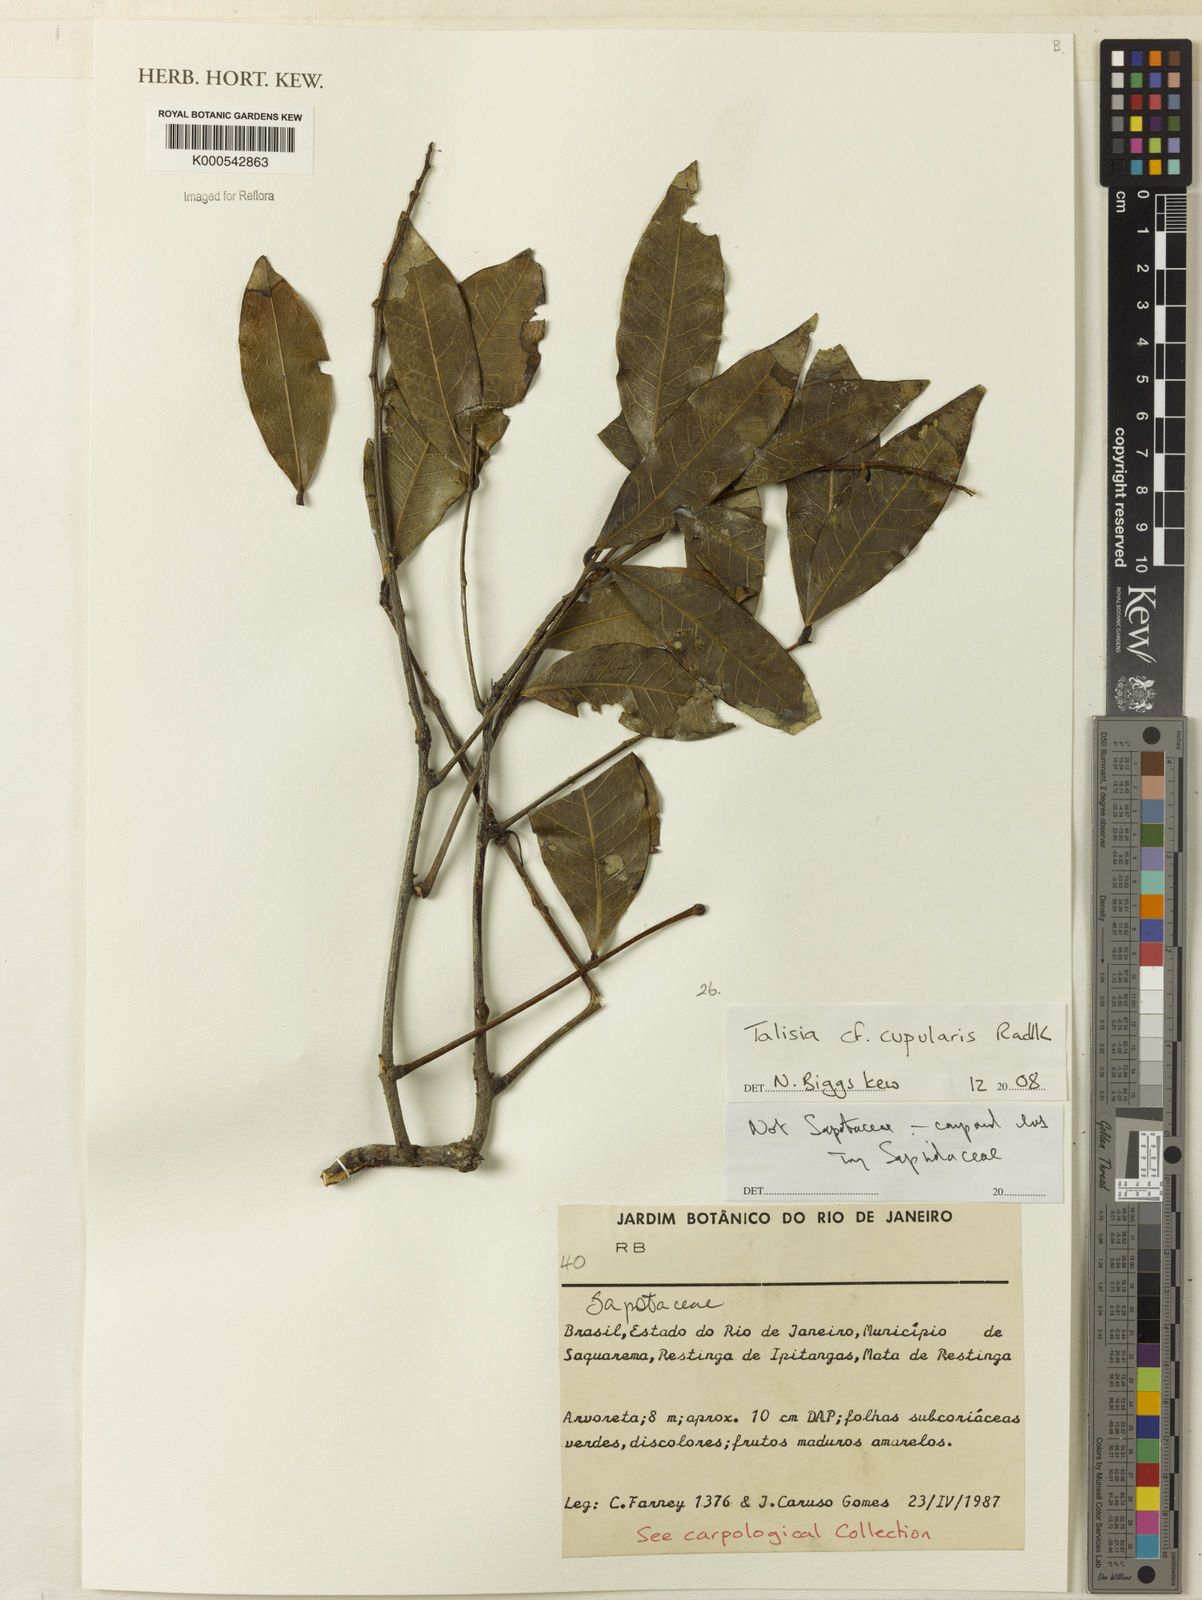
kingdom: Plantae
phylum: Tracheophyta
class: Magnoliopsida
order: Sapindales
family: Sapindaceae
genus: Talisia
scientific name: Talisia cupularis
